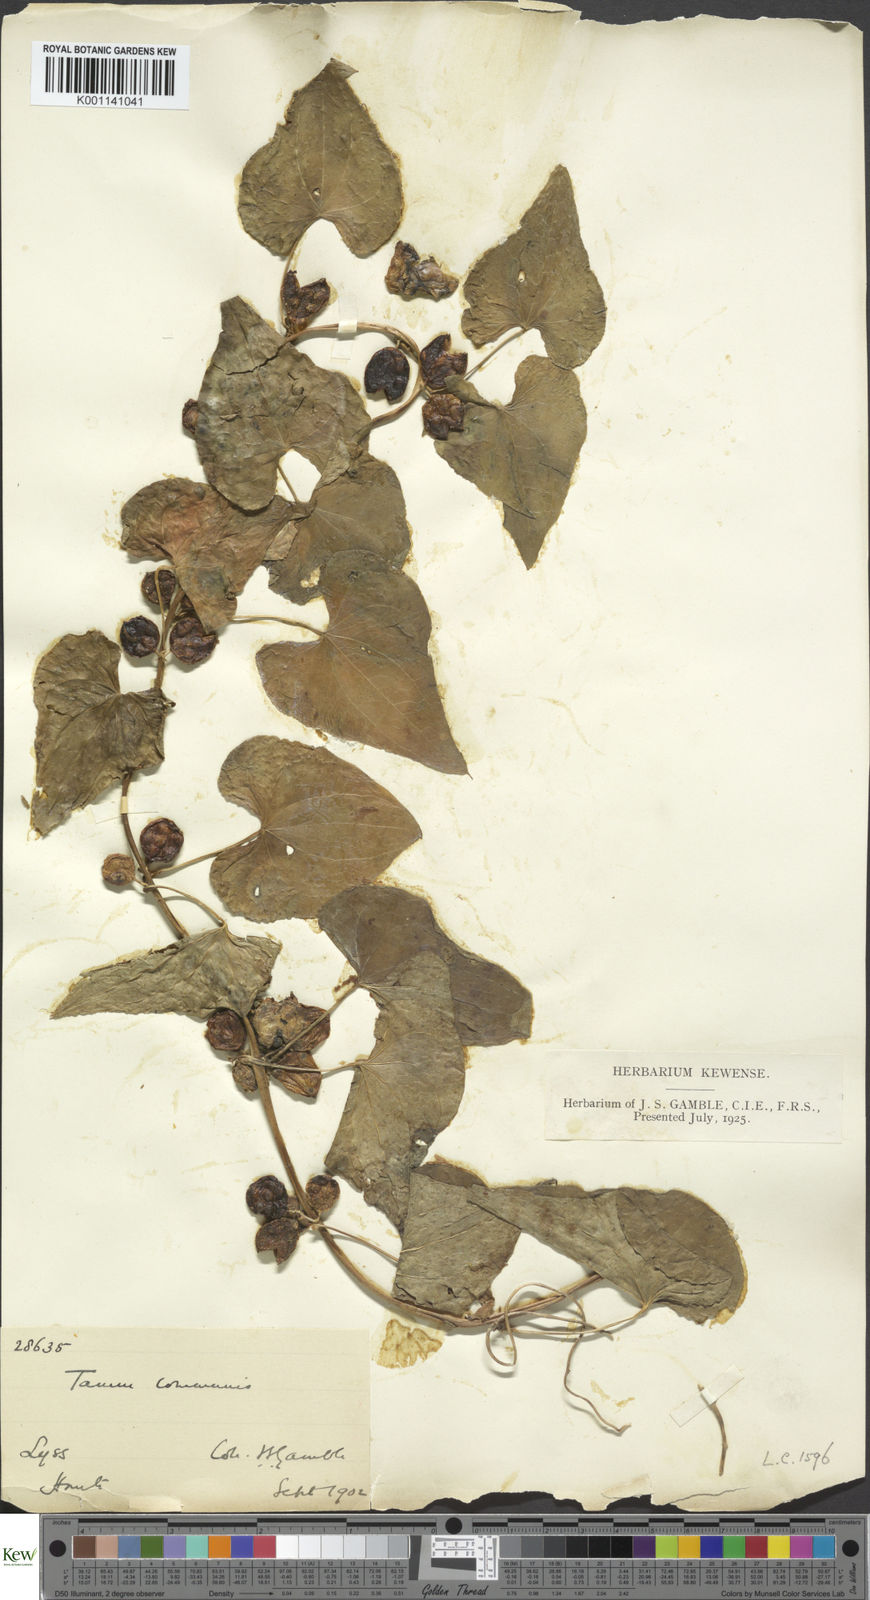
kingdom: Plantae
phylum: Tracheophyta
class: Liliopsida
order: Dioscoreales
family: Dioscoreaceae
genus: Dioscorea
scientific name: Dioscorea communis
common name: Black-bindweed
